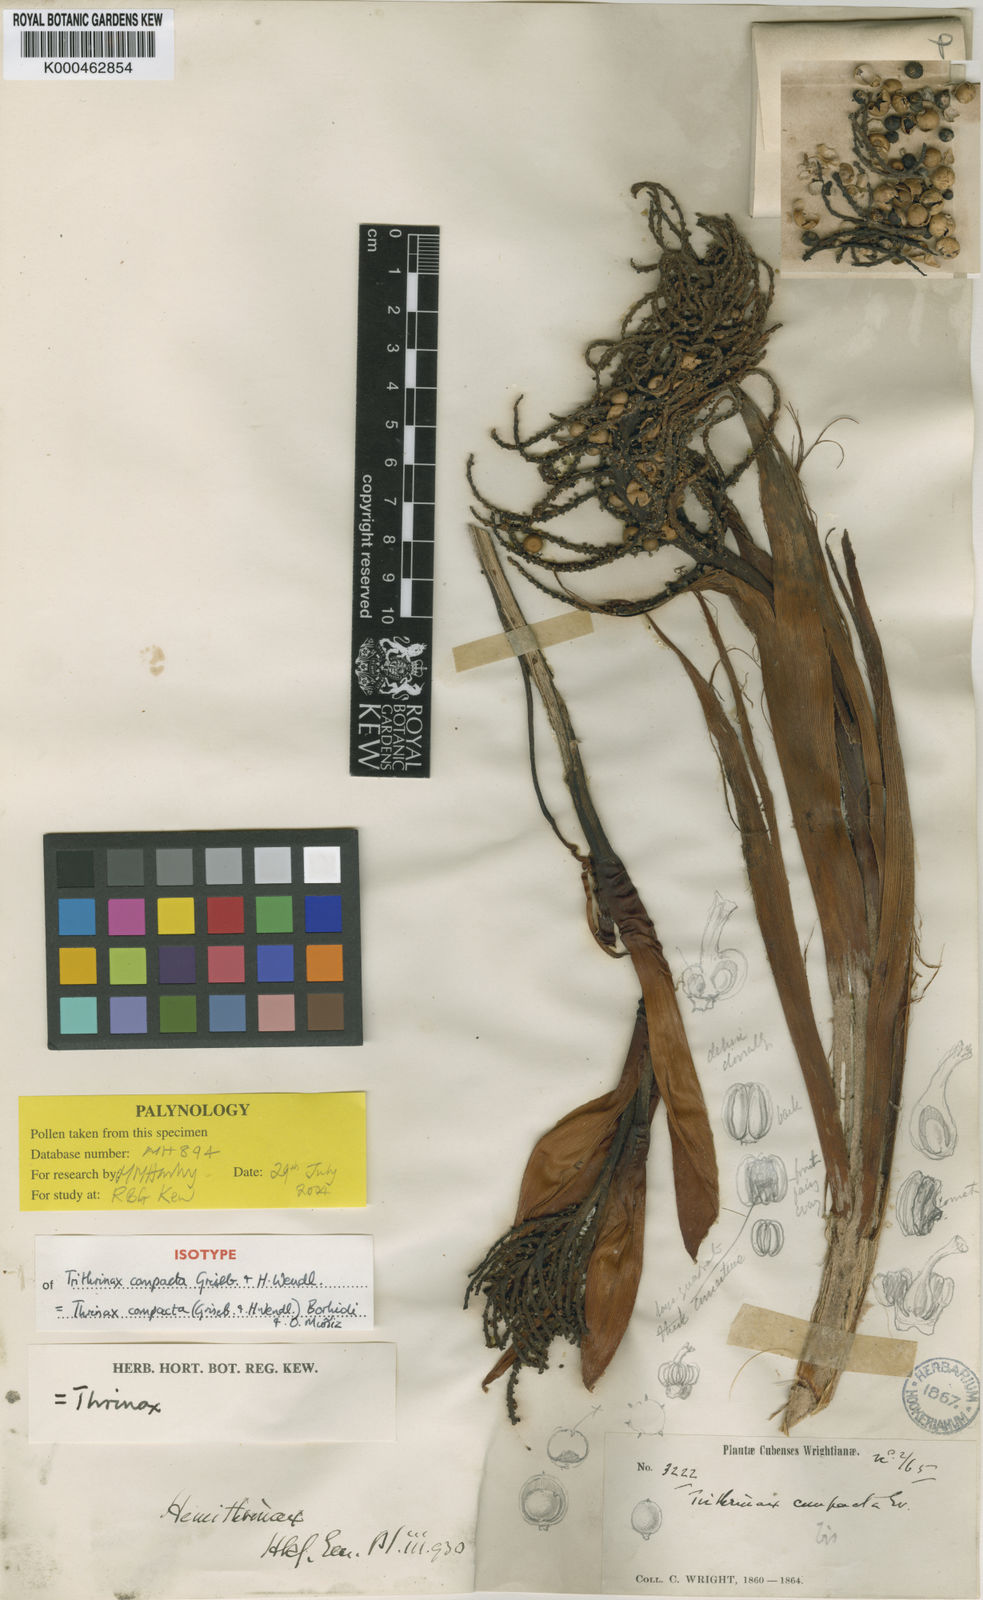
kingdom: Plantae
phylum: Tracheophyta
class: Liliopsida
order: Arecales
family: Arecaceae
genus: Hemithrinax
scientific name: Hemithrinax
